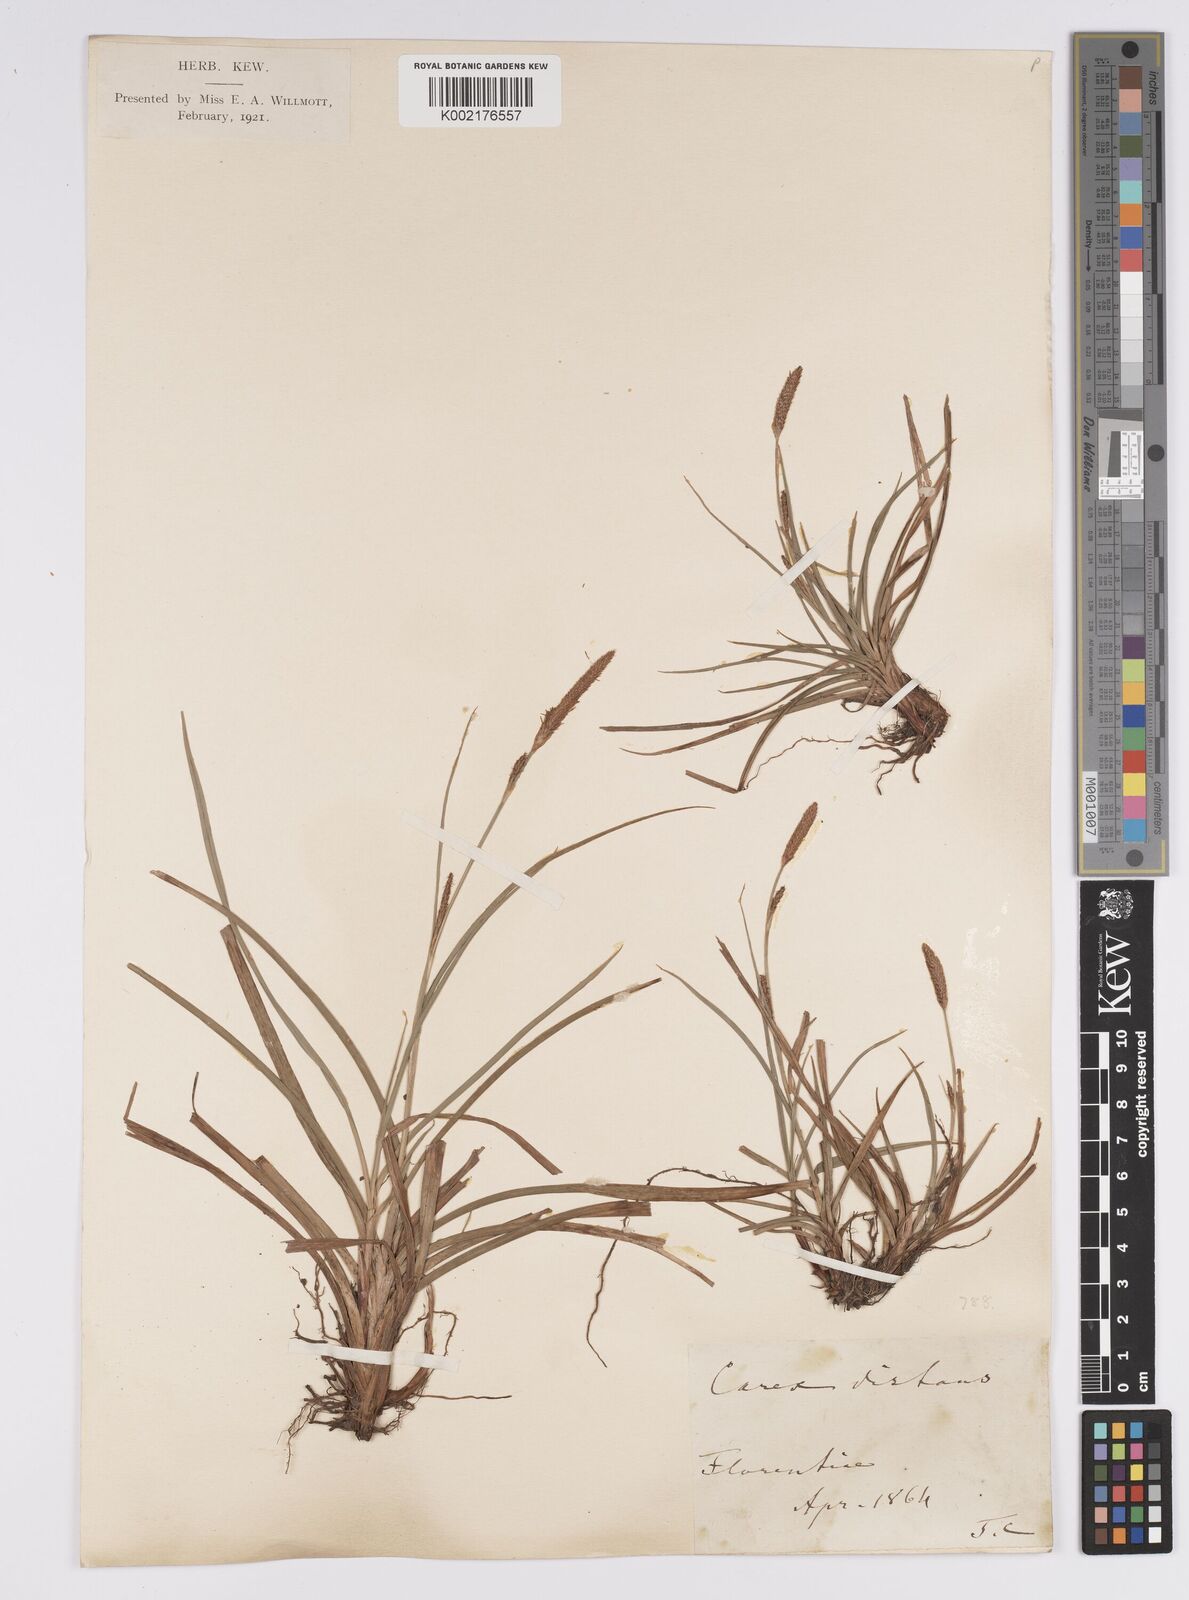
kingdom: Plantae
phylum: Tracheophyta
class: Liliopsida
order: Poales
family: Cyperaceae
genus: Carex
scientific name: Carex distans
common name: Distant sedge
